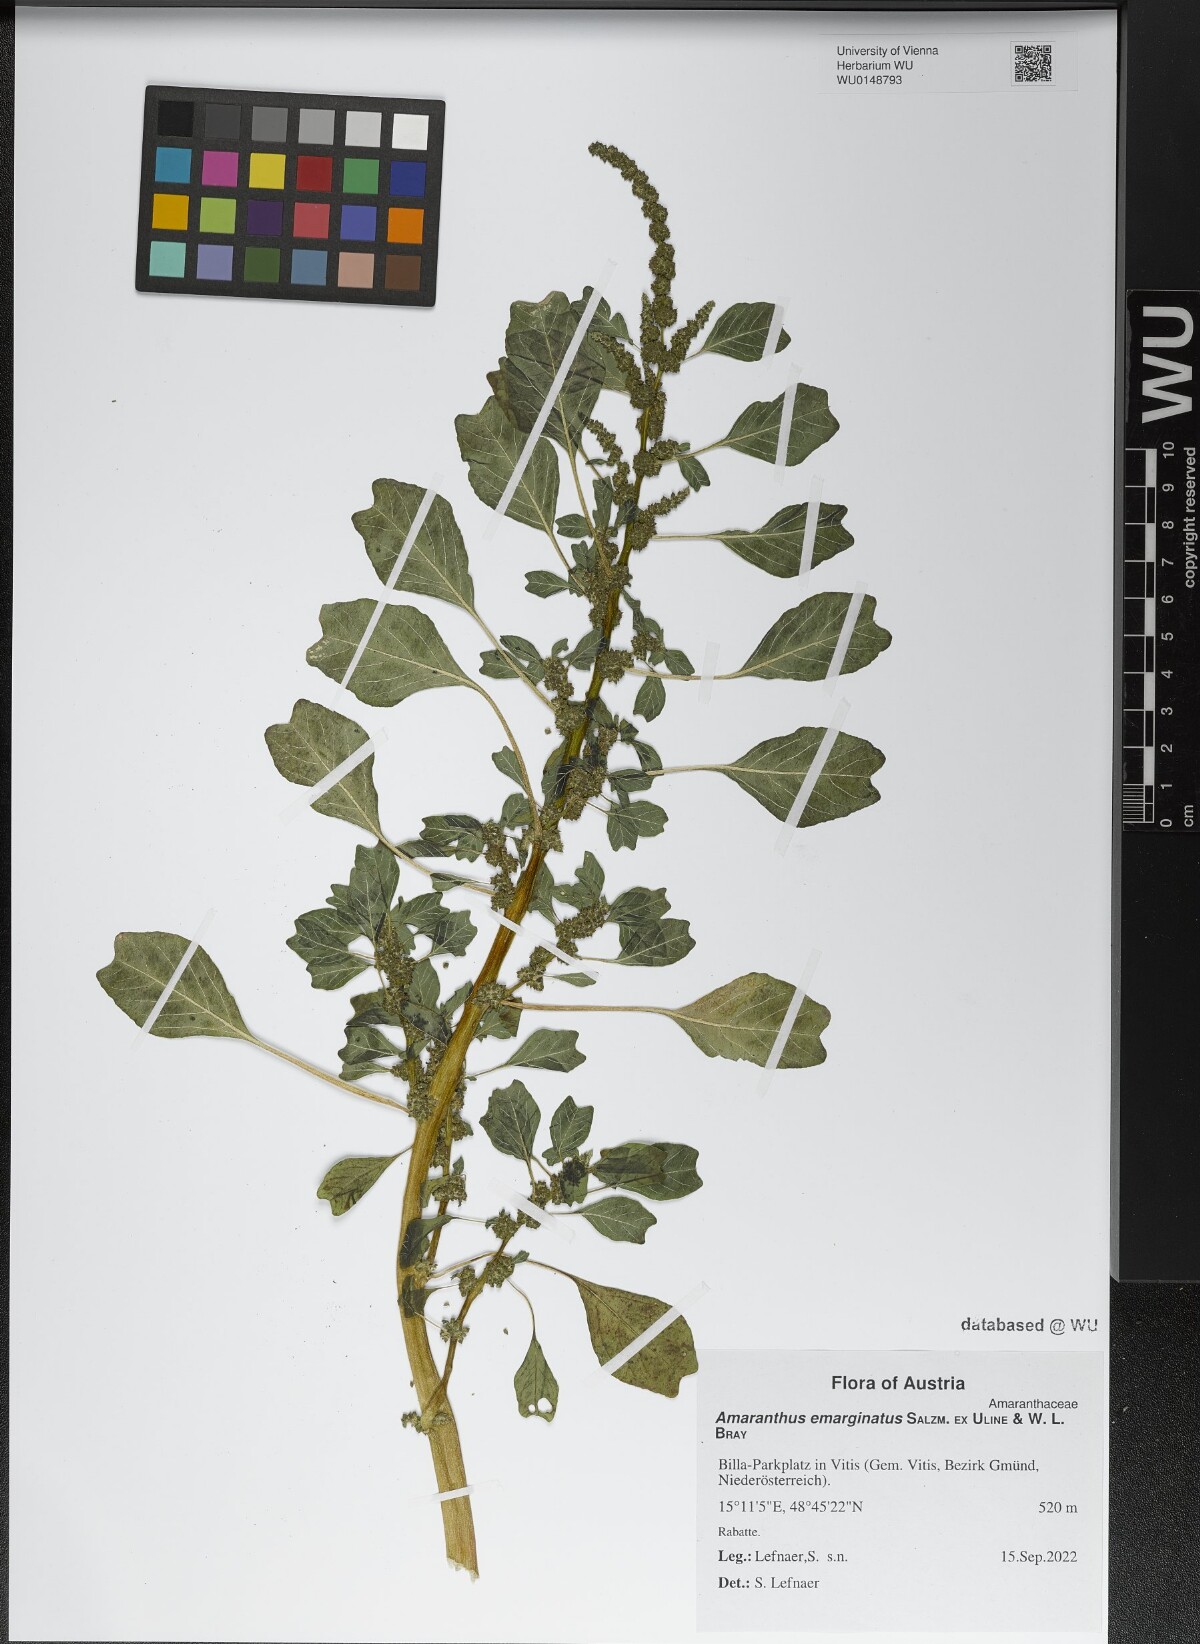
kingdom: Plantae
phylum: Tracheophyta
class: Magnoliopsida
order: Caryophyllales
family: Amaranthaceae
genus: Amaranthus
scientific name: Amaranthus emarginatus
